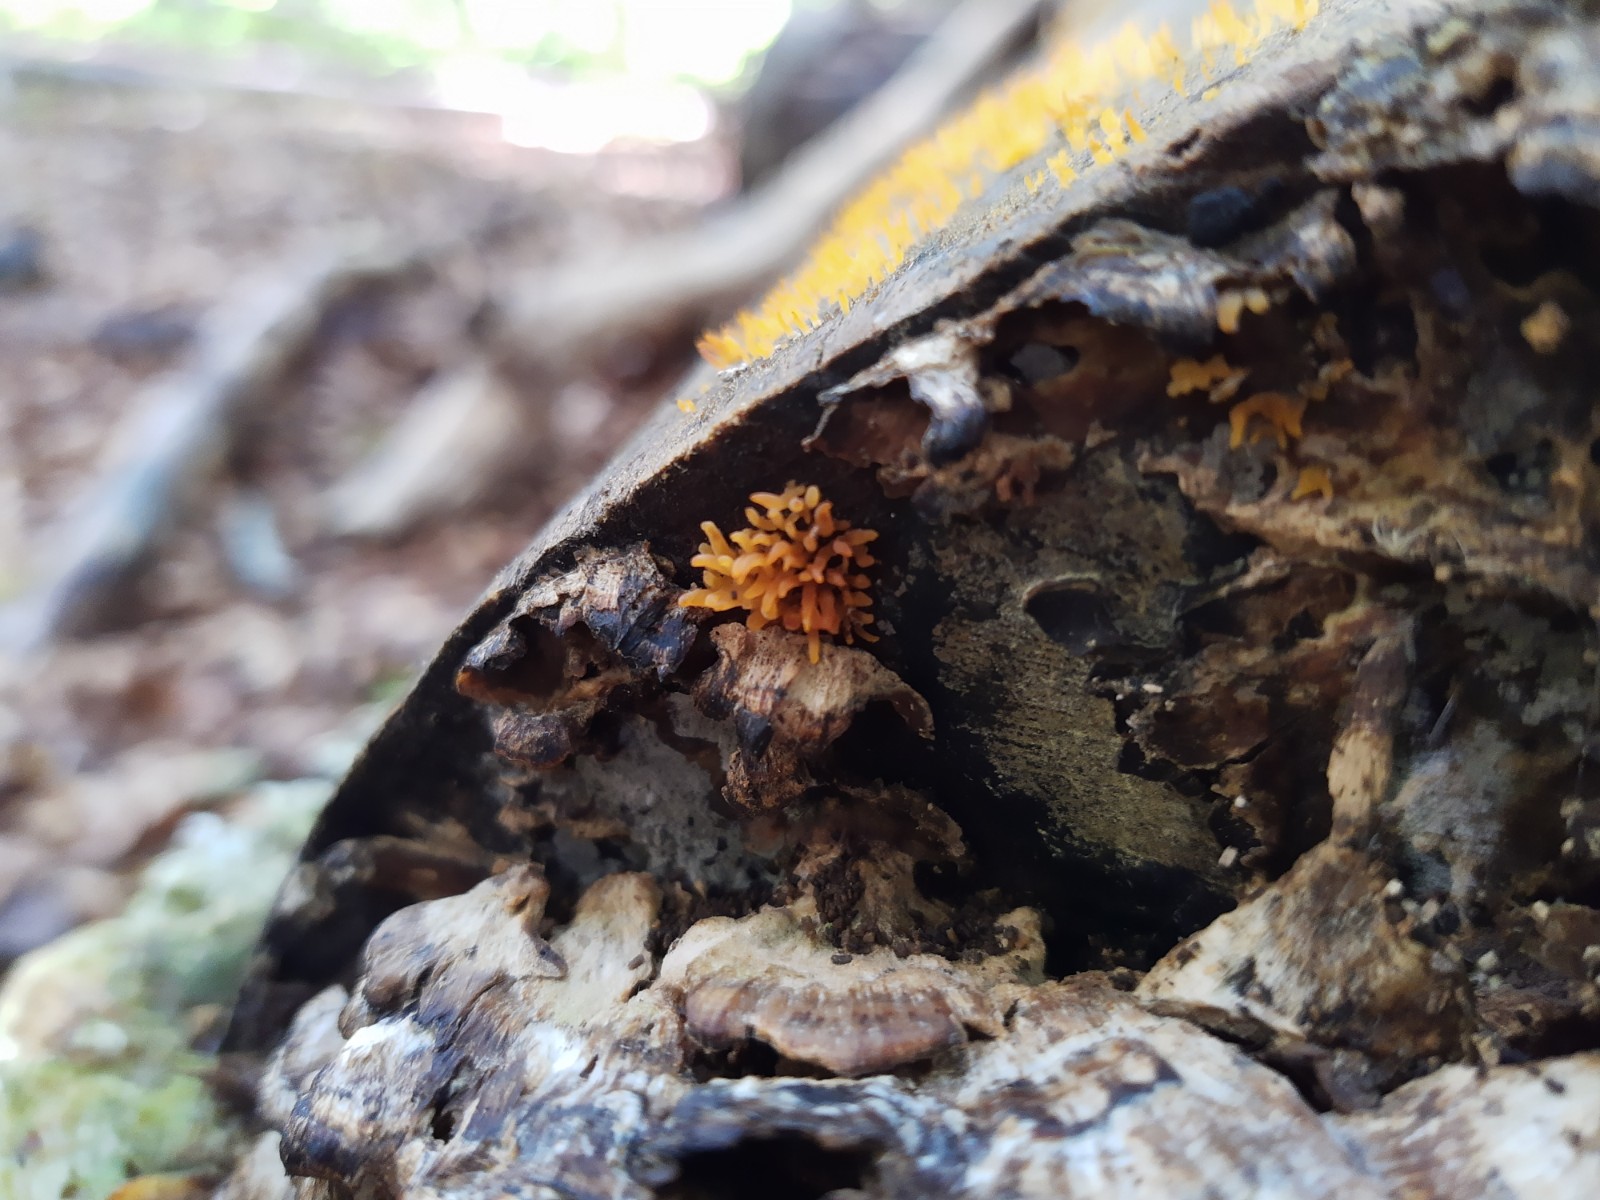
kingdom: Fungi
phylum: Basidiomycota
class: Dacrymycetes
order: Dacrymycetales
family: Dacrymycetaceae
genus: Calocera
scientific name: Calocera cornea
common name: liden guldgaffel
